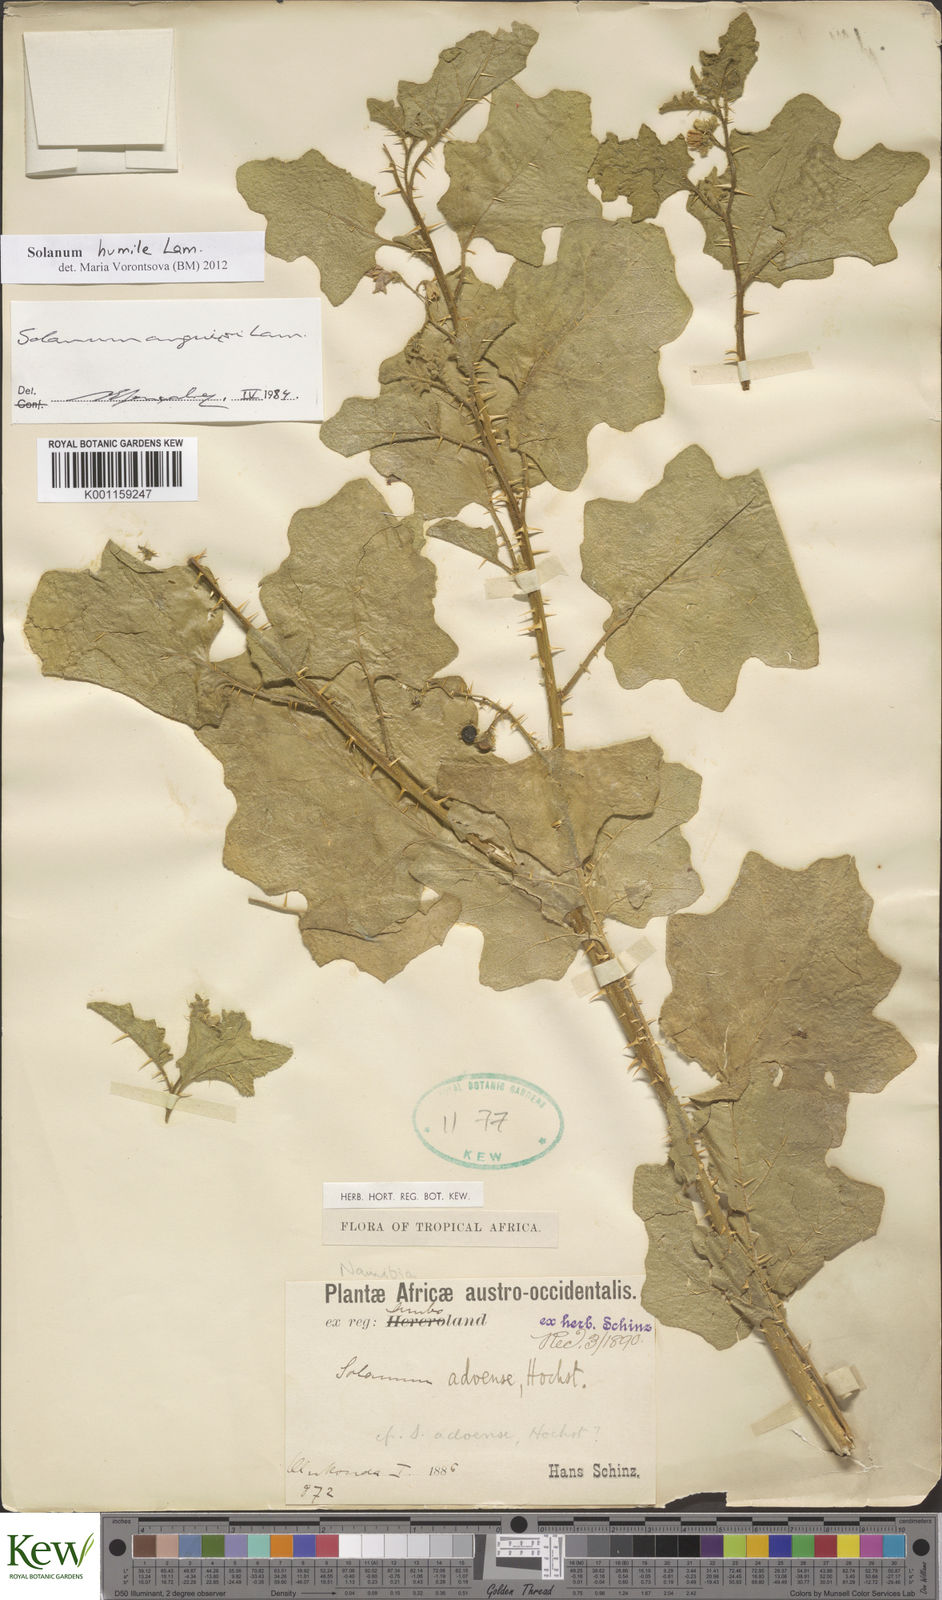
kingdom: Plantae
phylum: Tracheophyta
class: Magnoliopsida
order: Solanales
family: Solanaceae
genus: Solanum
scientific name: Solanum humile
